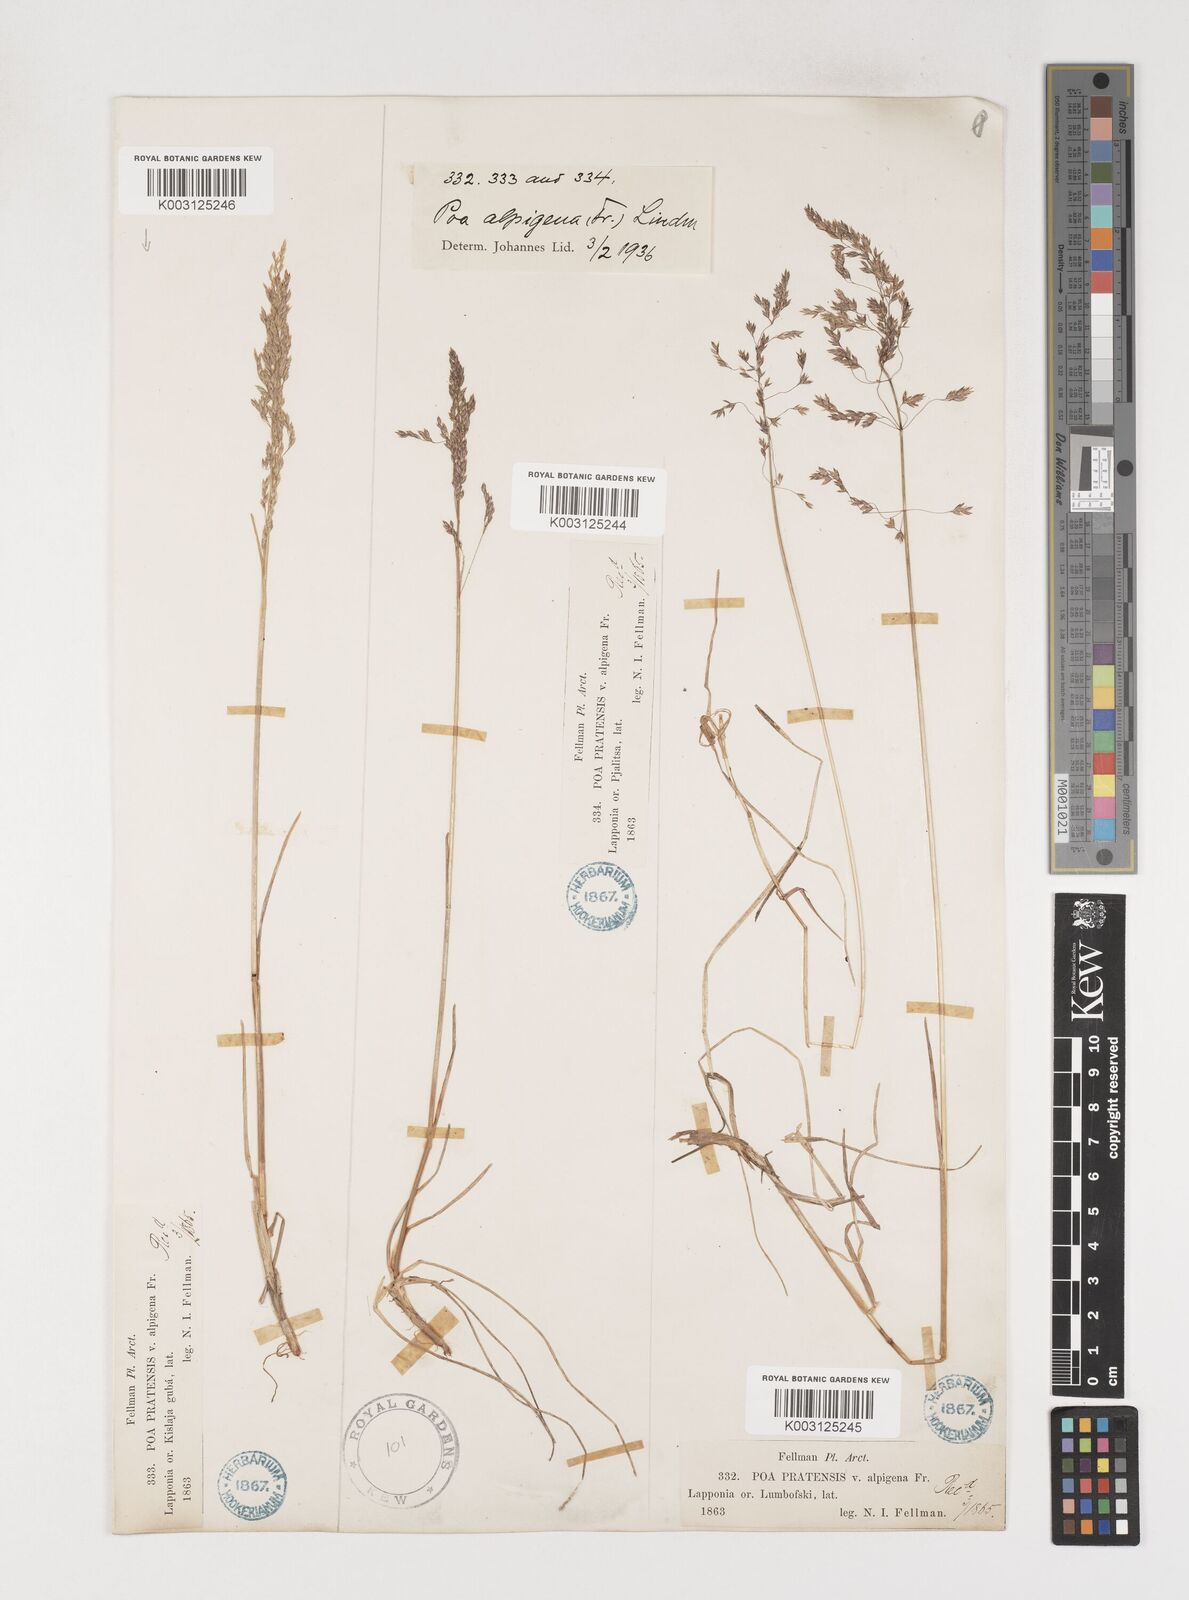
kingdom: Plantae
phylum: Tracheophyta
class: Liliopsida
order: Poales
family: Poaceae
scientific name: Poaceae
